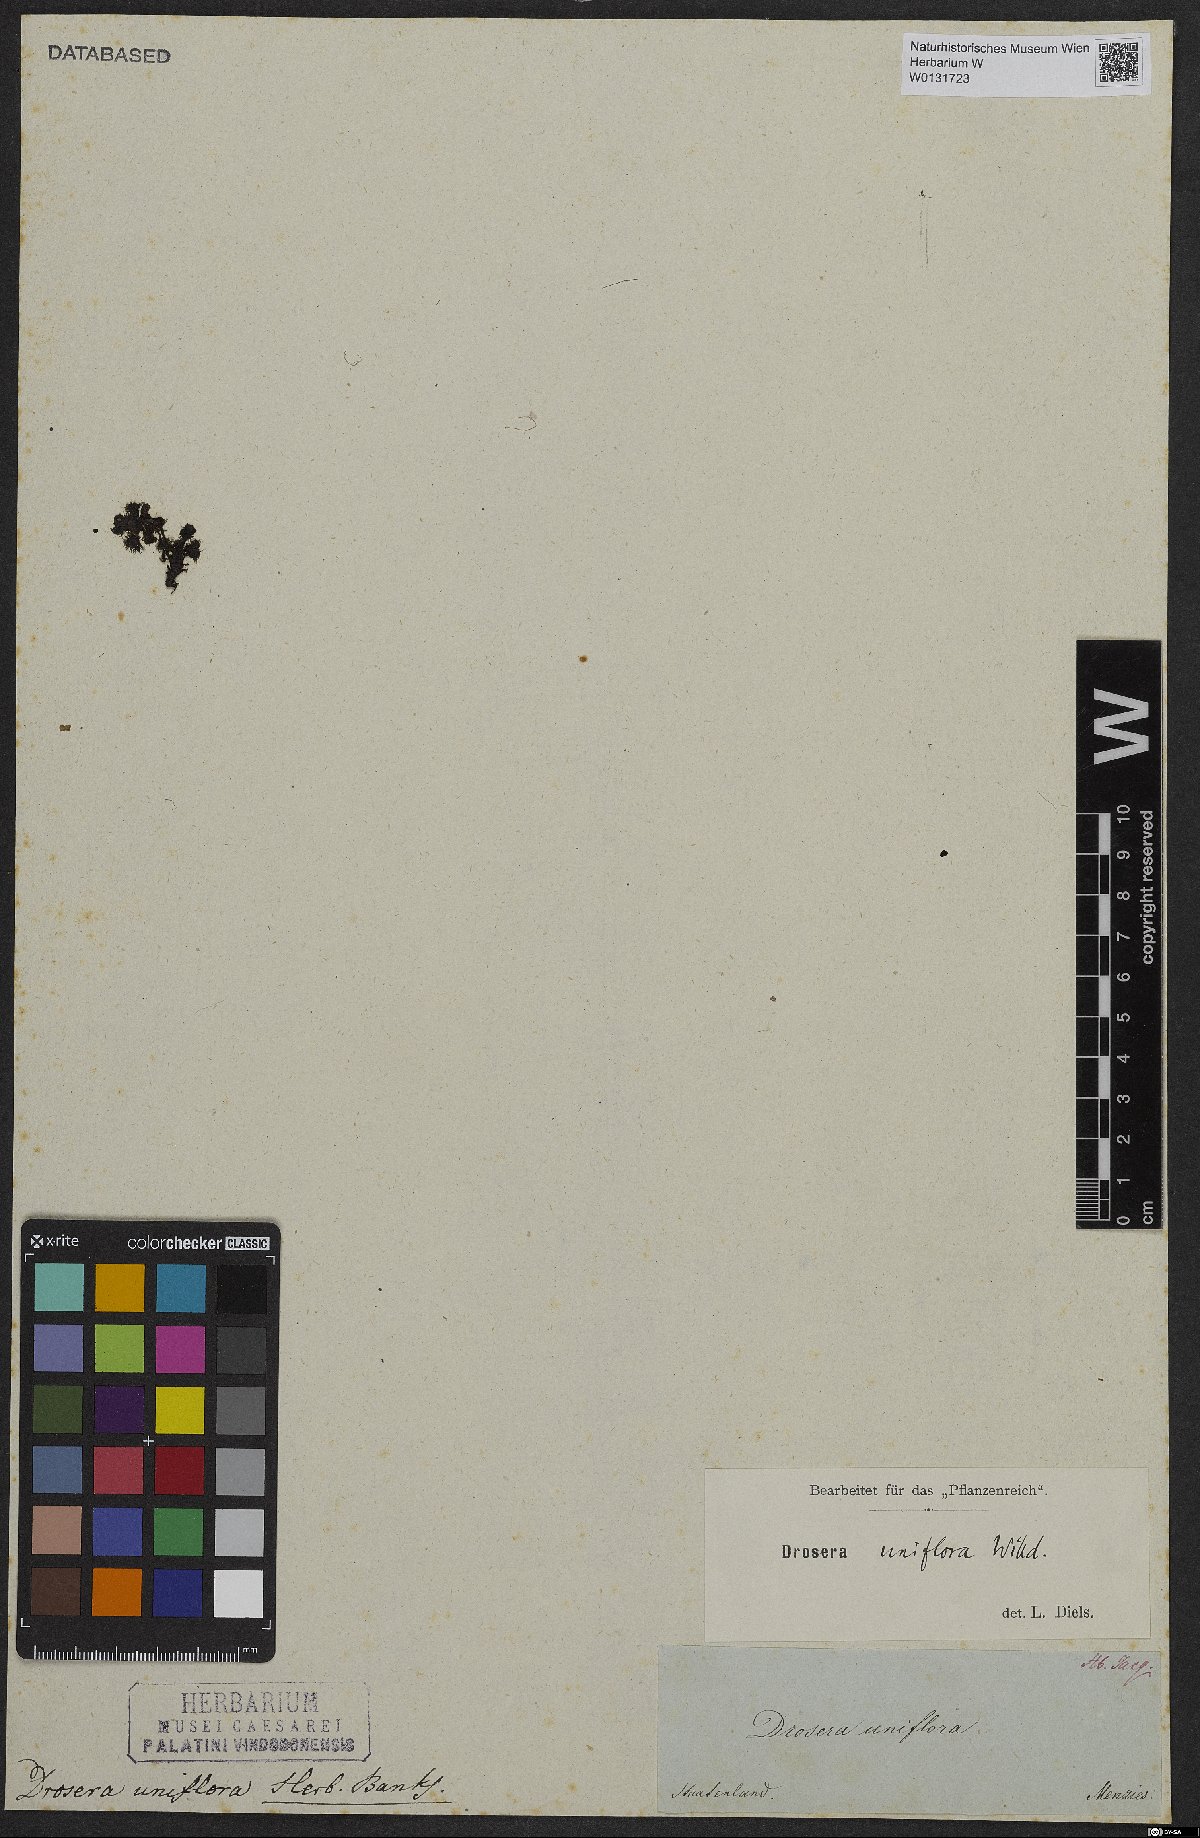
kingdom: Plantae
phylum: Tracheophyta
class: Magnoliopsida
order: Caryophyllales
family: Droseraceae
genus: Drosera
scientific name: Drosera uniflora
